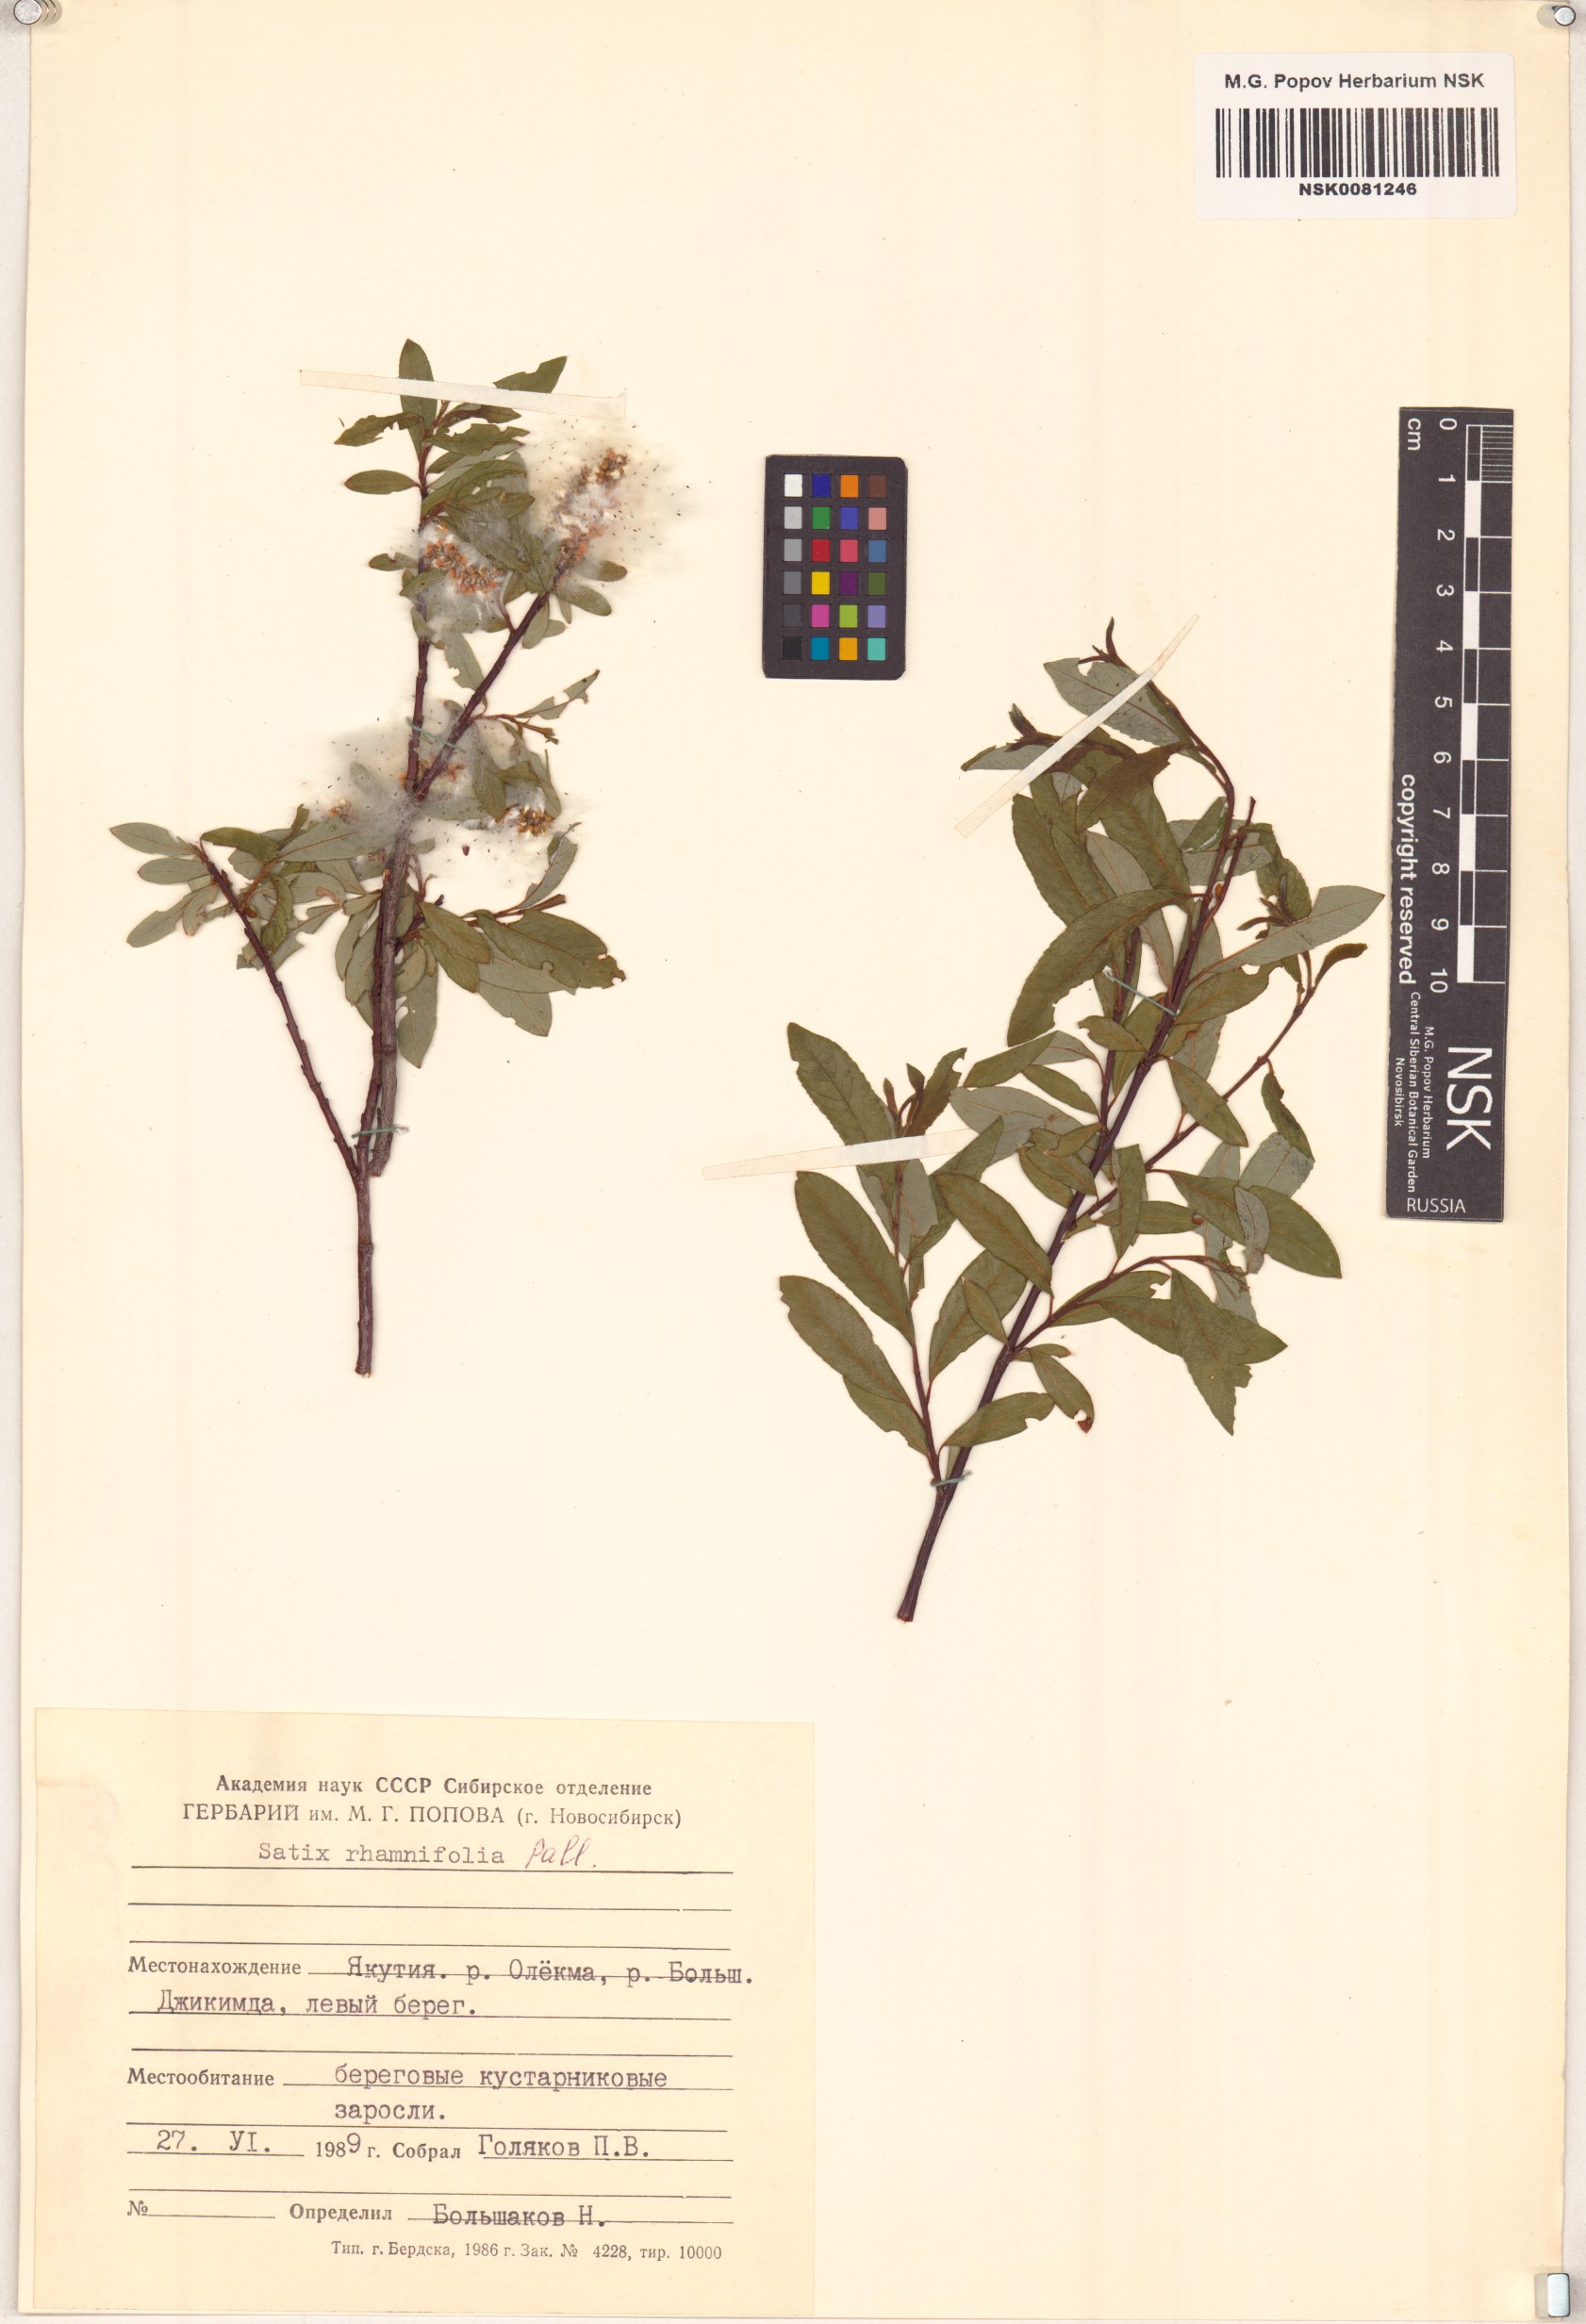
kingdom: Plantae
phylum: Tracheophyta
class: Magnoliopsida
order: Malpighiales
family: Salicaceae
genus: Salix
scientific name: Salix rhamnifolia
